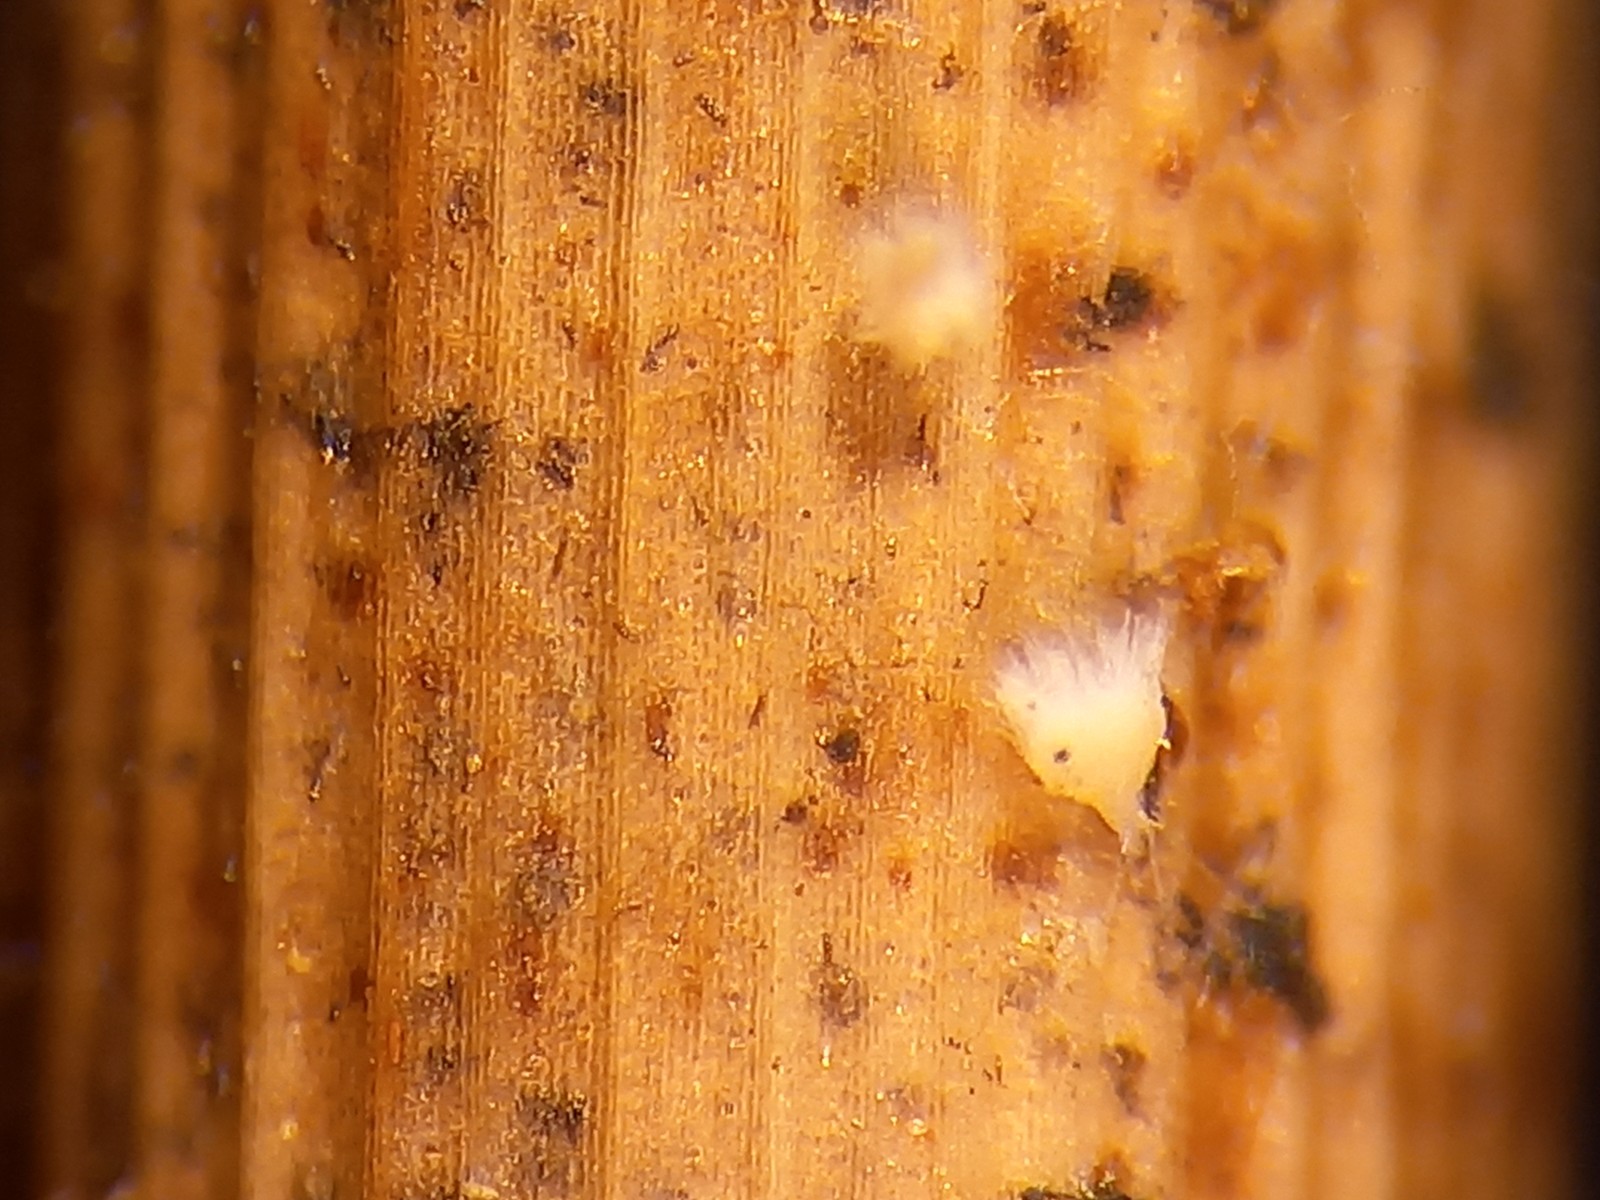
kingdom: Fungi
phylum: Ascomycota
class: Leotiomycetes
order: Helotiales
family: Lachnaceae
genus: Lachnum
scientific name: Lachnum apalum
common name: siv-frynseskive
